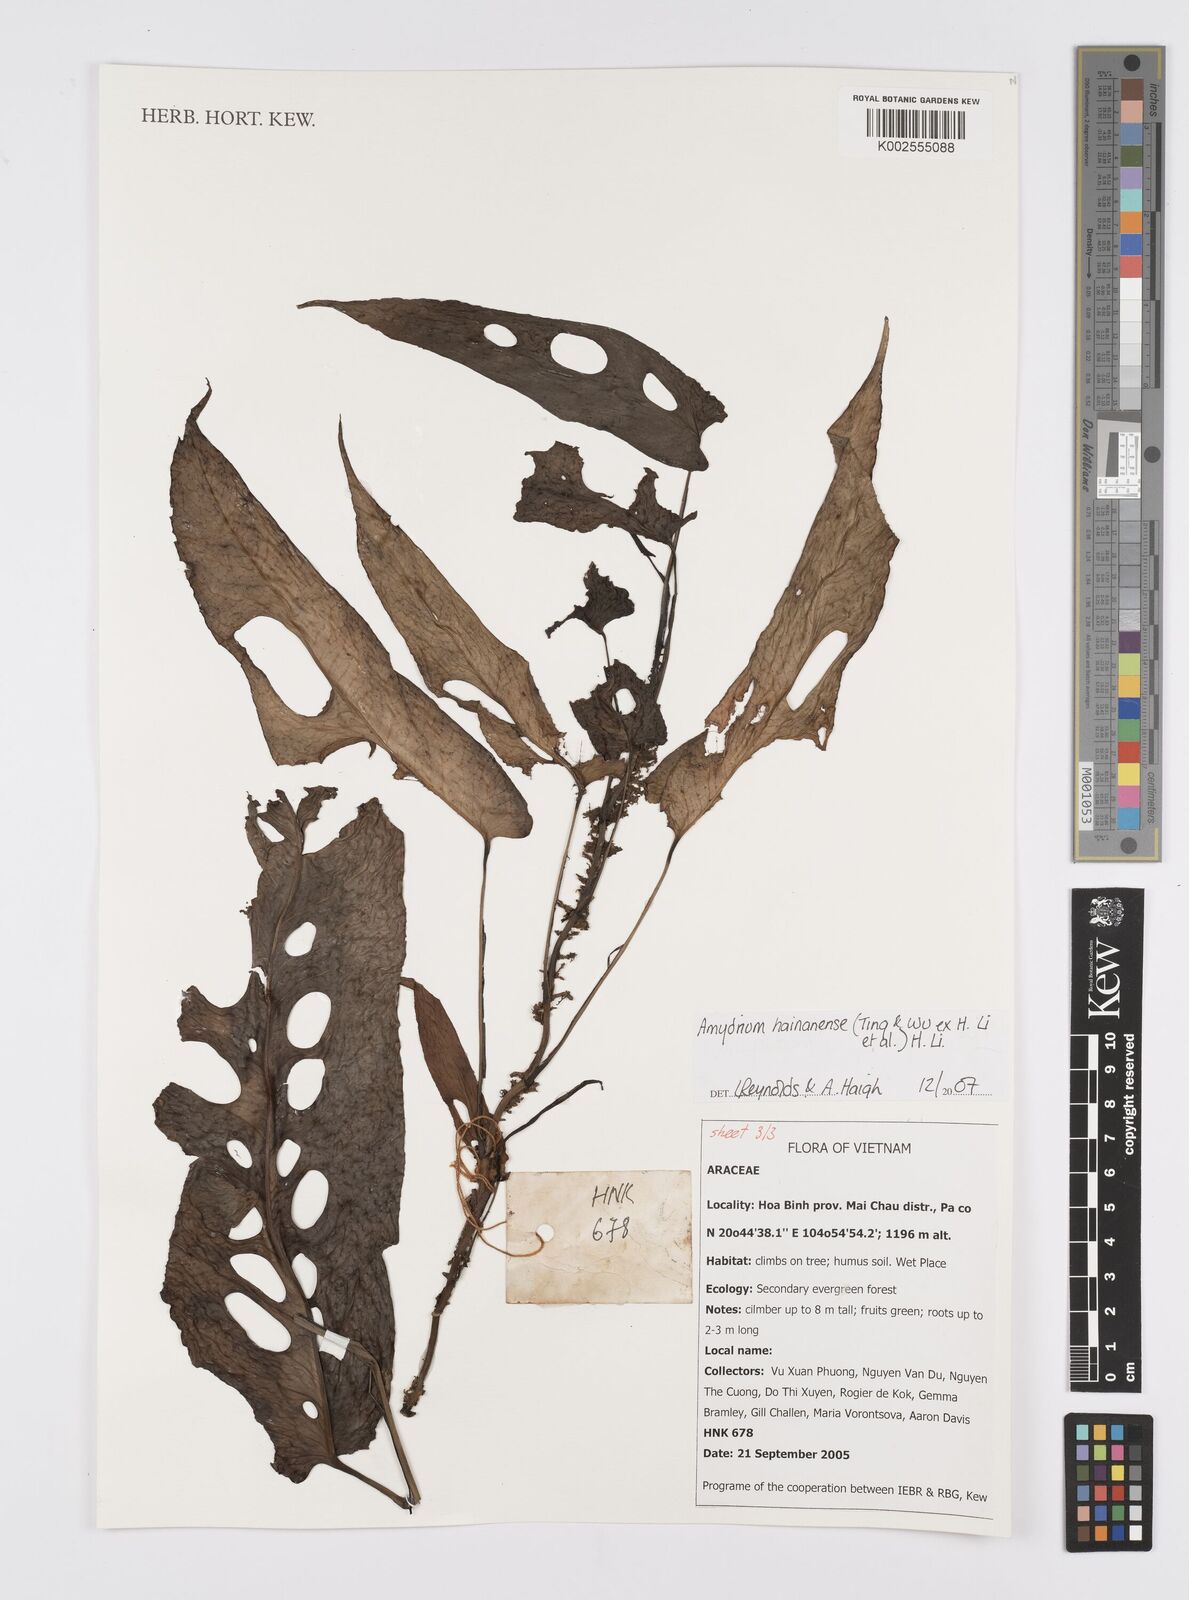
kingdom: Plantae
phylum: Tracheophyta
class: Liliopsida
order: Alismatales
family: Araceae
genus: Amydrium
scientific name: Amydrium hainanense
